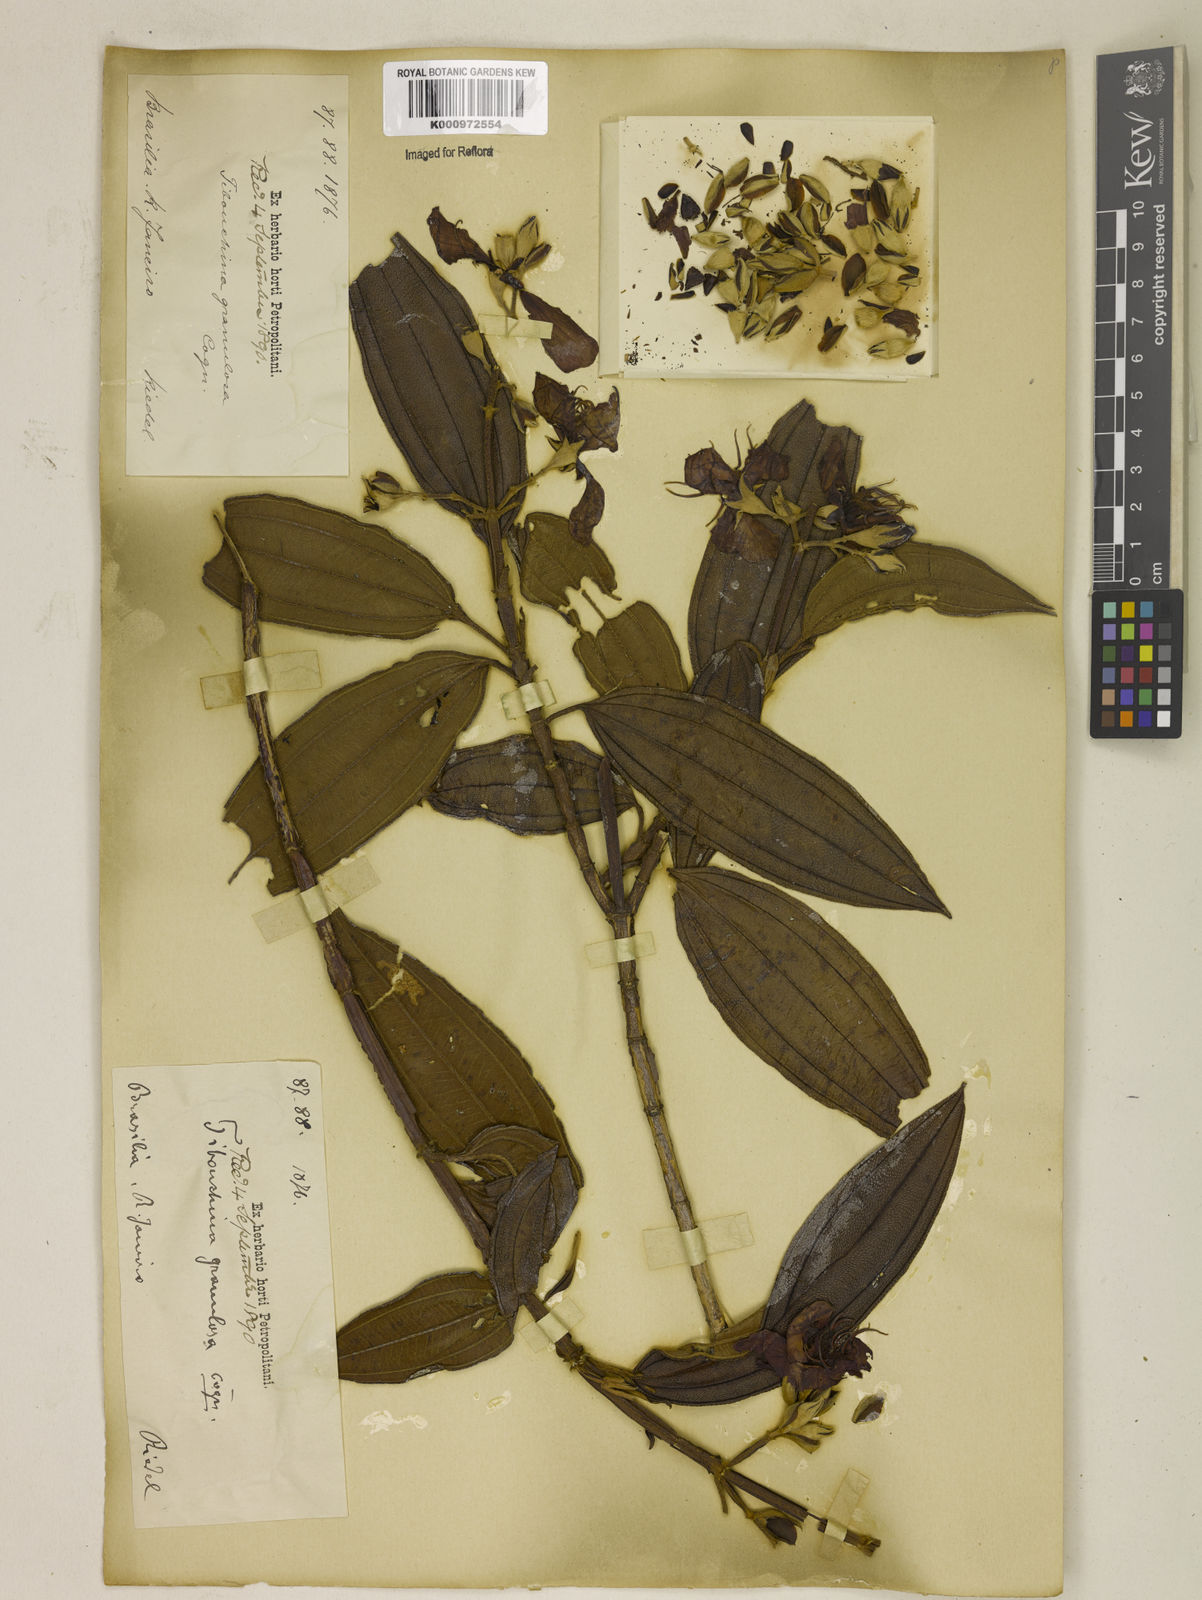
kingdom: Plantae
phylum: Tracheophyta
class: Magnoliopsida
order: Myrtales
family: Melastomataceae
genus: Pleroma
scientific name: Pleroma granulosum
